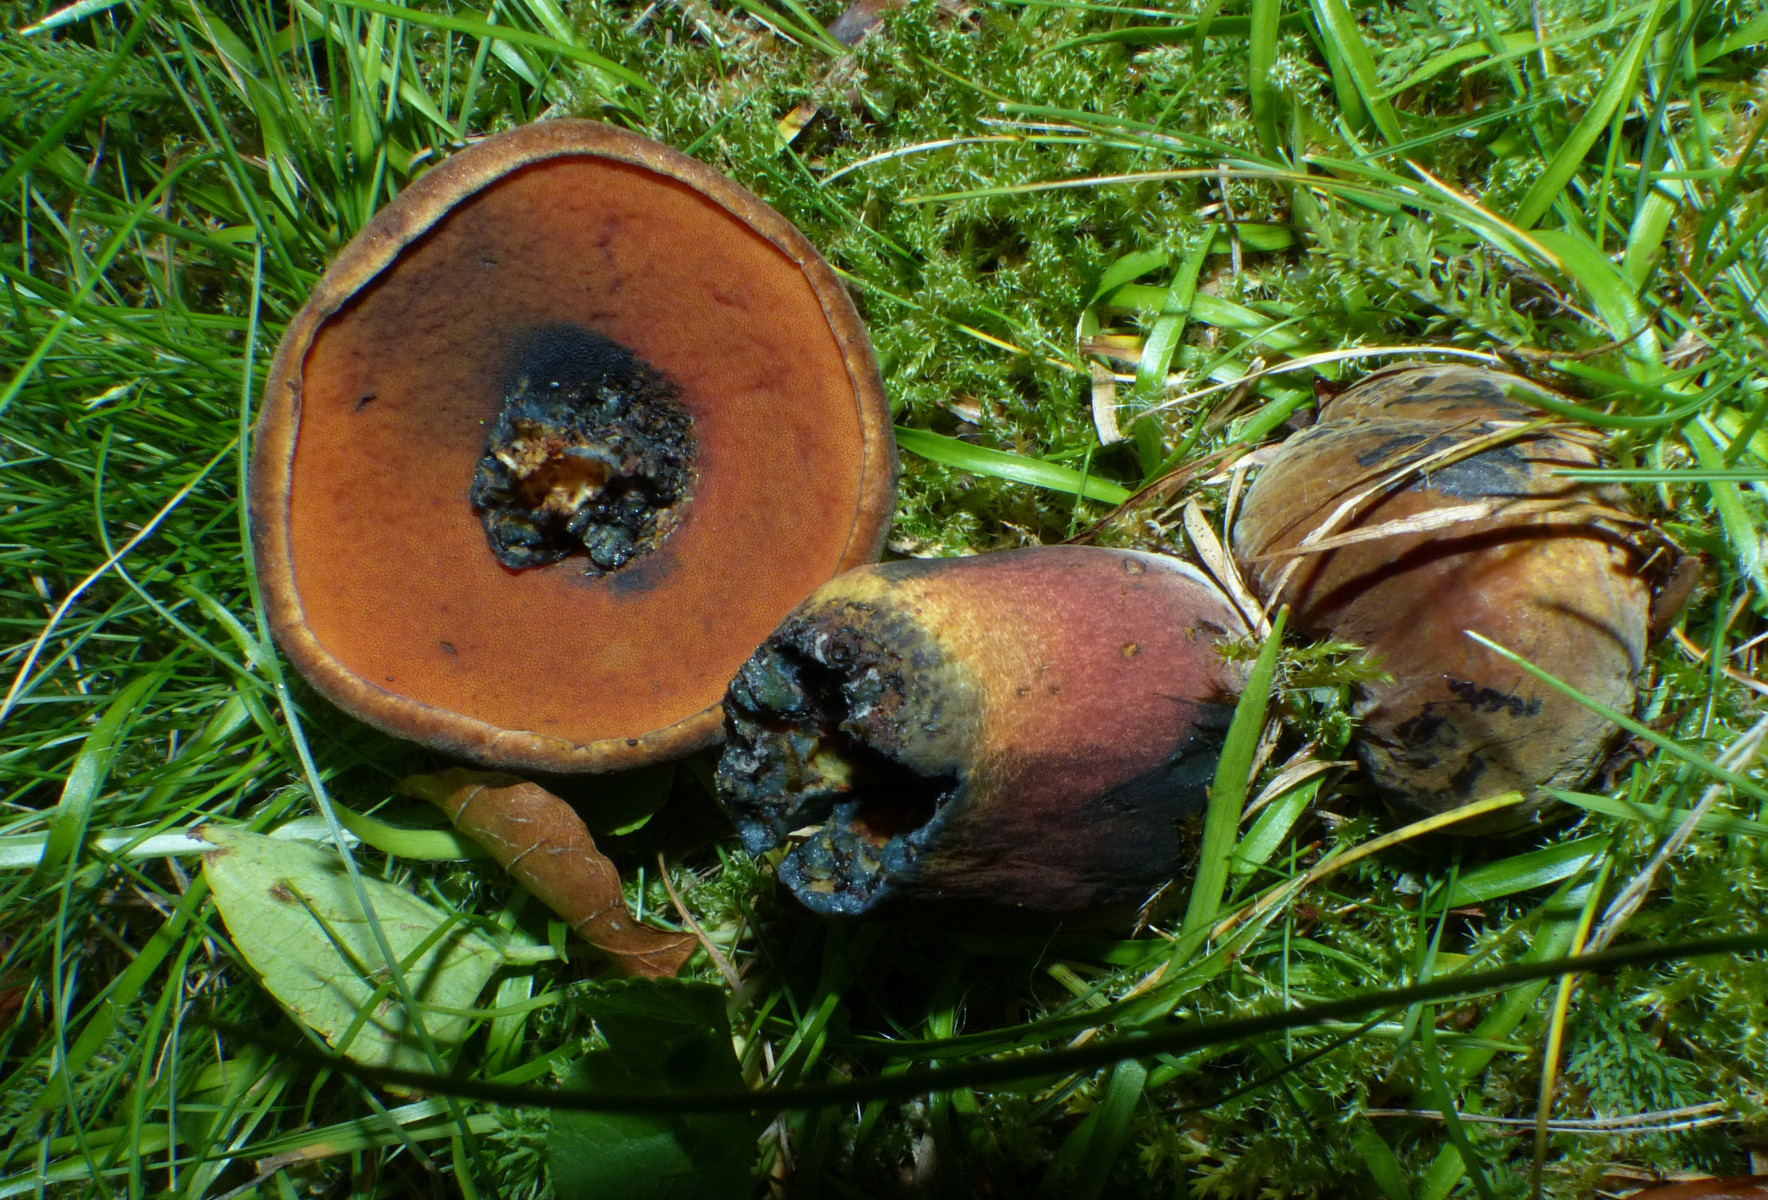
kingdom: Fungi
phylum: Basidiomycota
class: Agaricomycetes
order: Boletales
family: Boletaceae
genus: Neoboletus
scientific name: Neoboletus erythropus
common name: punktstokket indigorørhat
